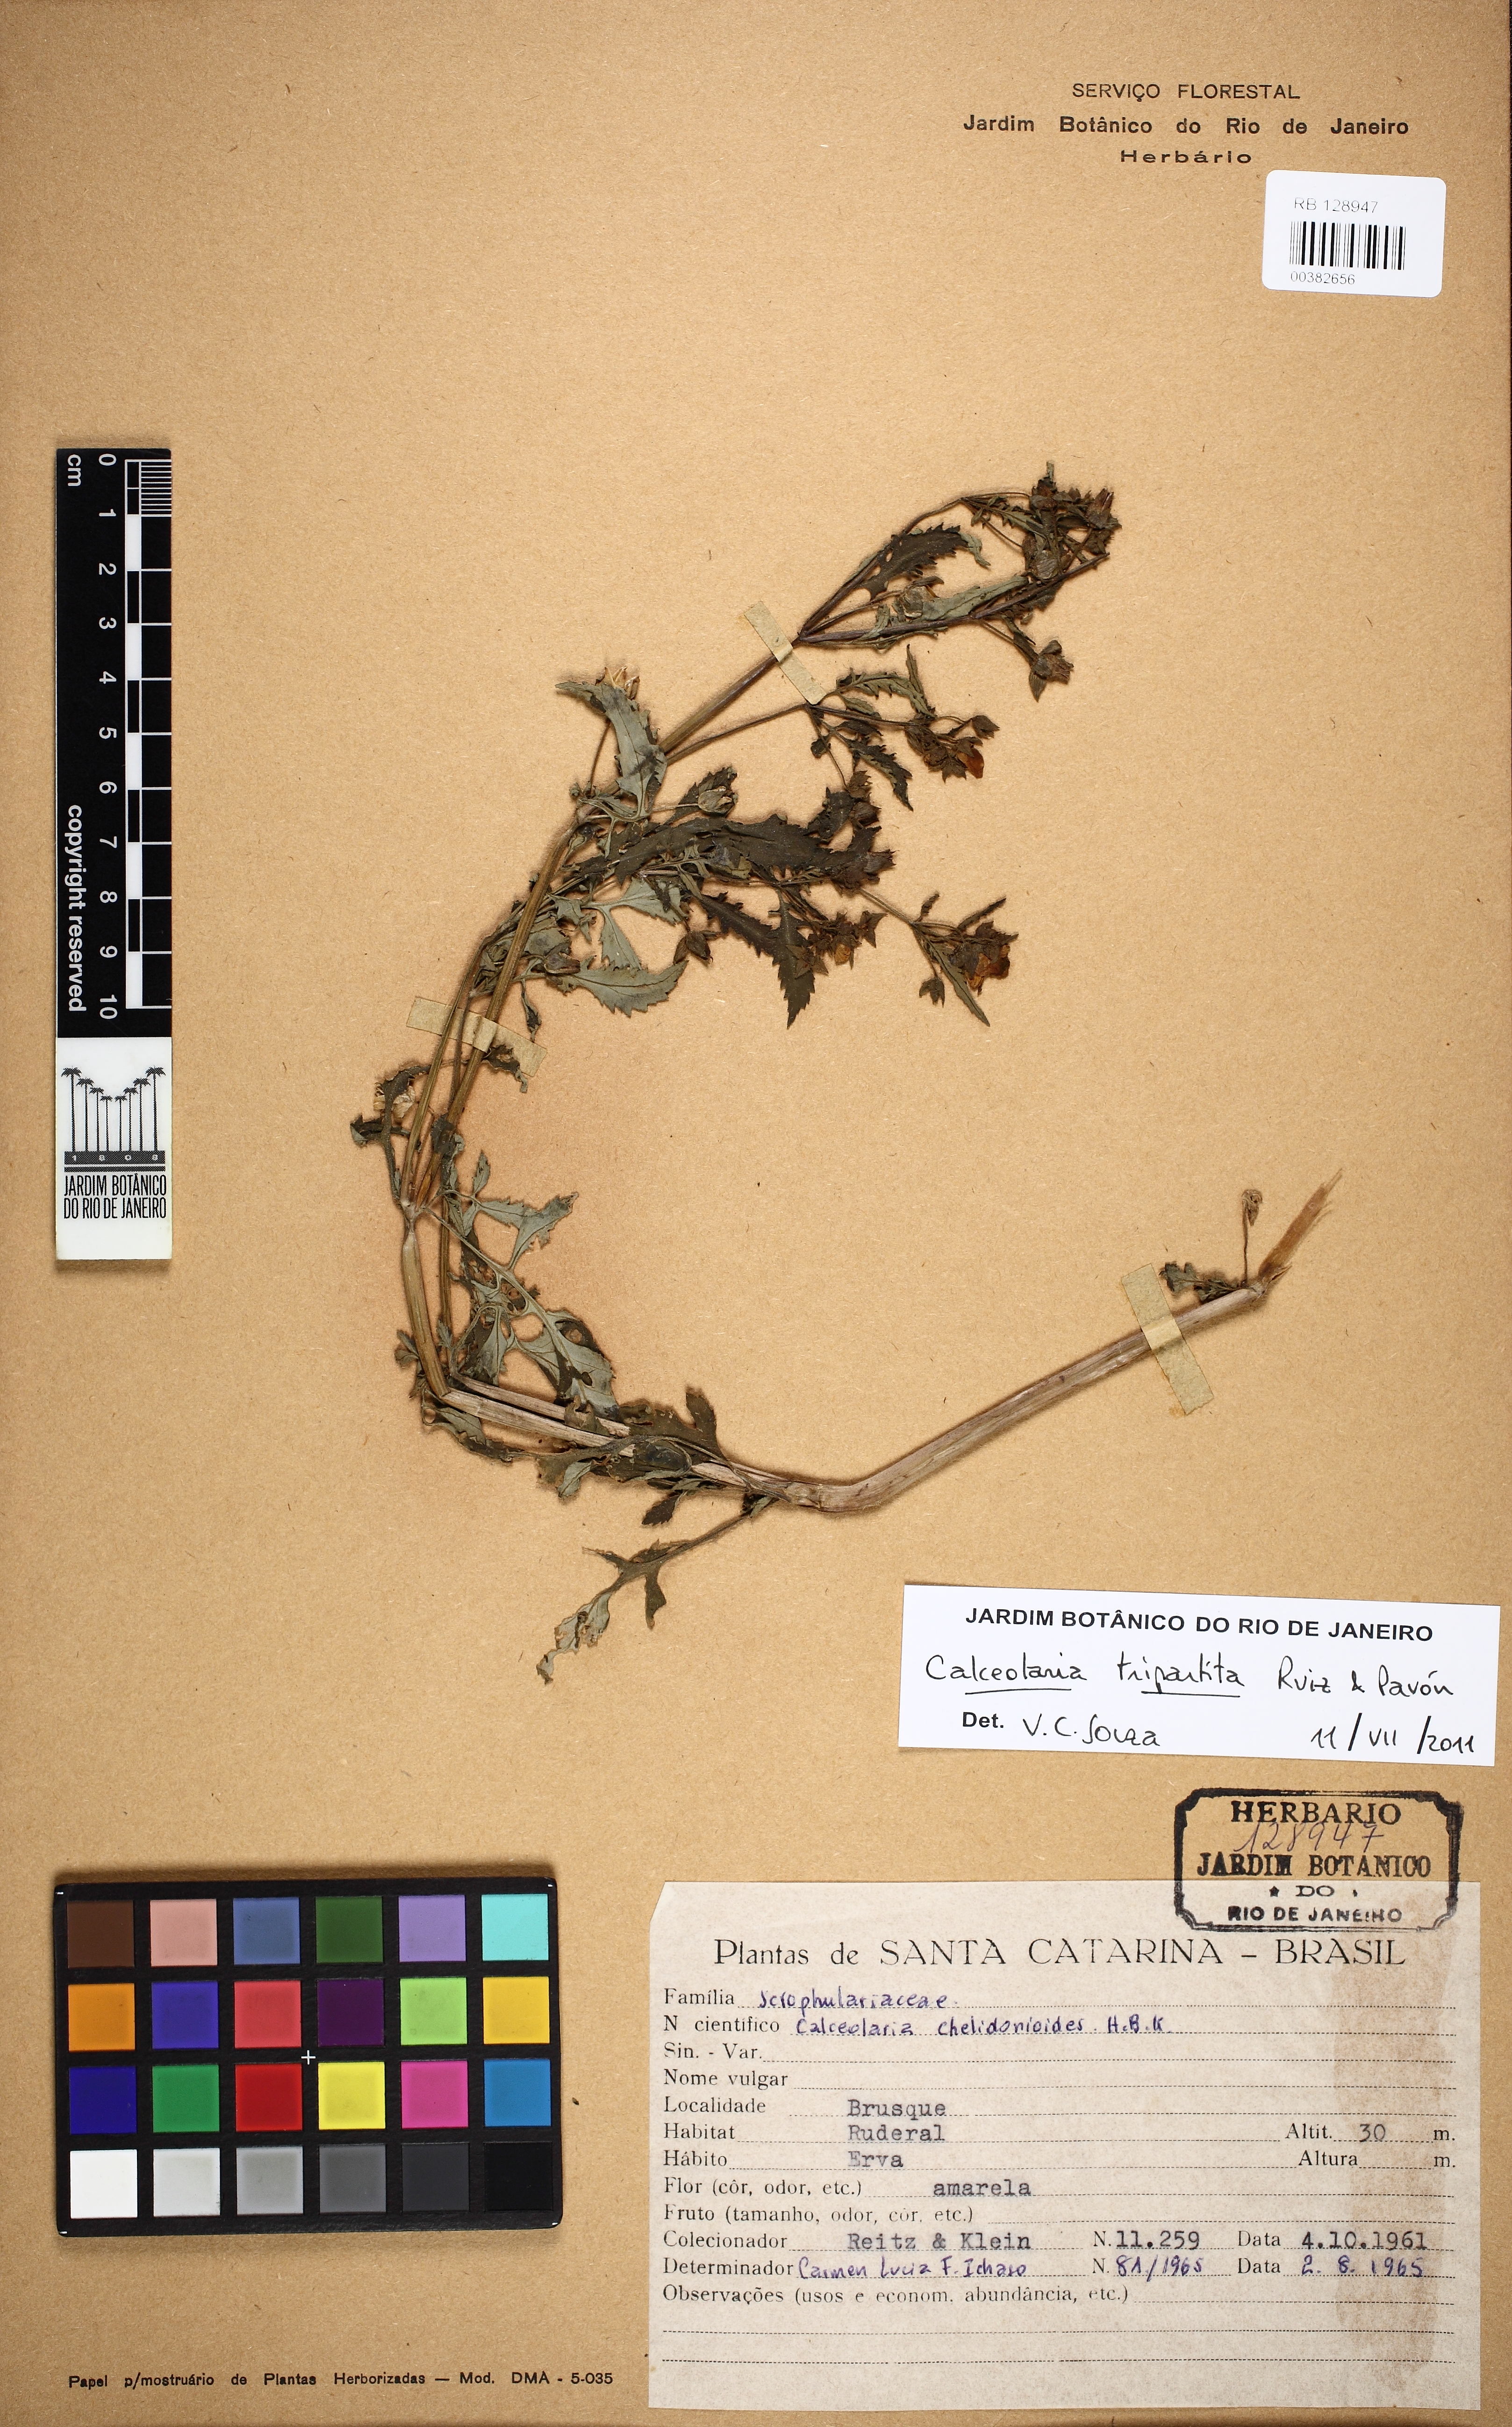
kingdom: Plantae
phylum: Tracheophyta
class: Magnoliopsida
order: Lamiales
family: Calceolariaceae
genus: Calceolaria
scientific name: Calceolaria tripartita
